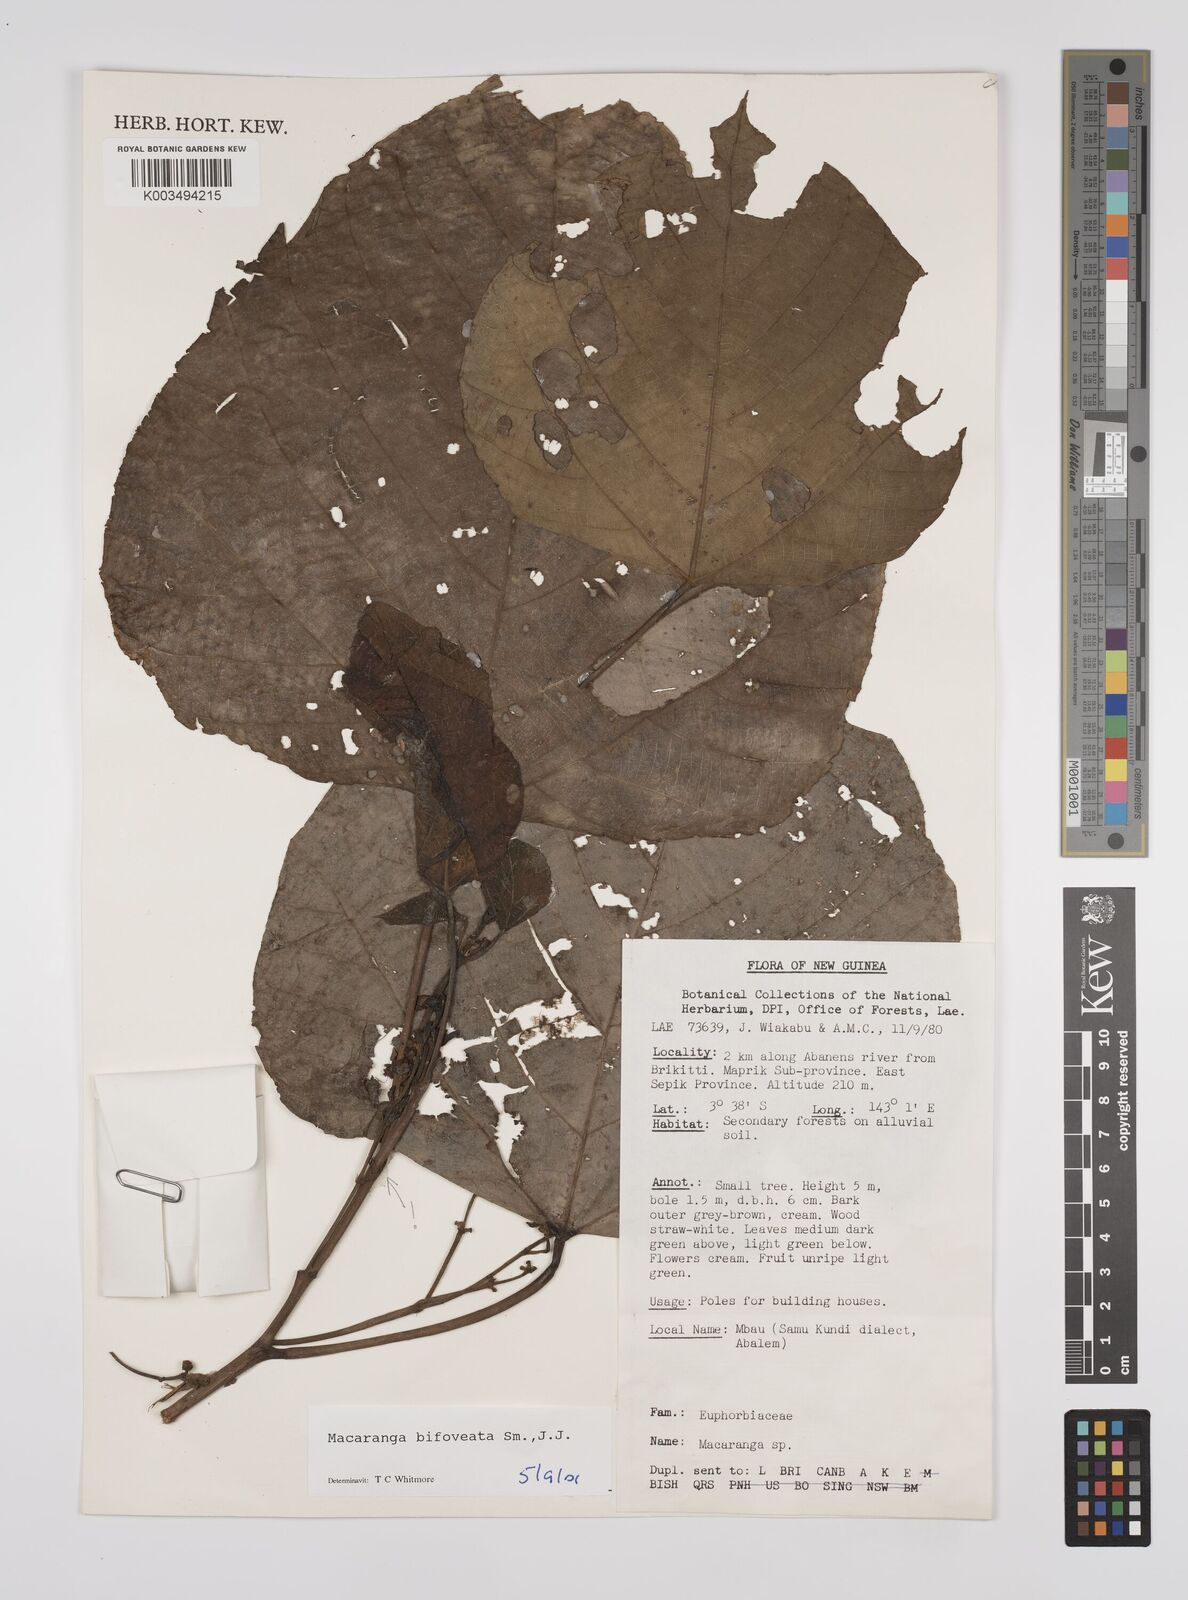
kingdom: Plantae
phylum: Tracheophyta
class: Magnoliopsida
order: Malpighiales
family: Euphorbiaceae
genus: Macaranga
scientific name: Macaranga bifoveata
